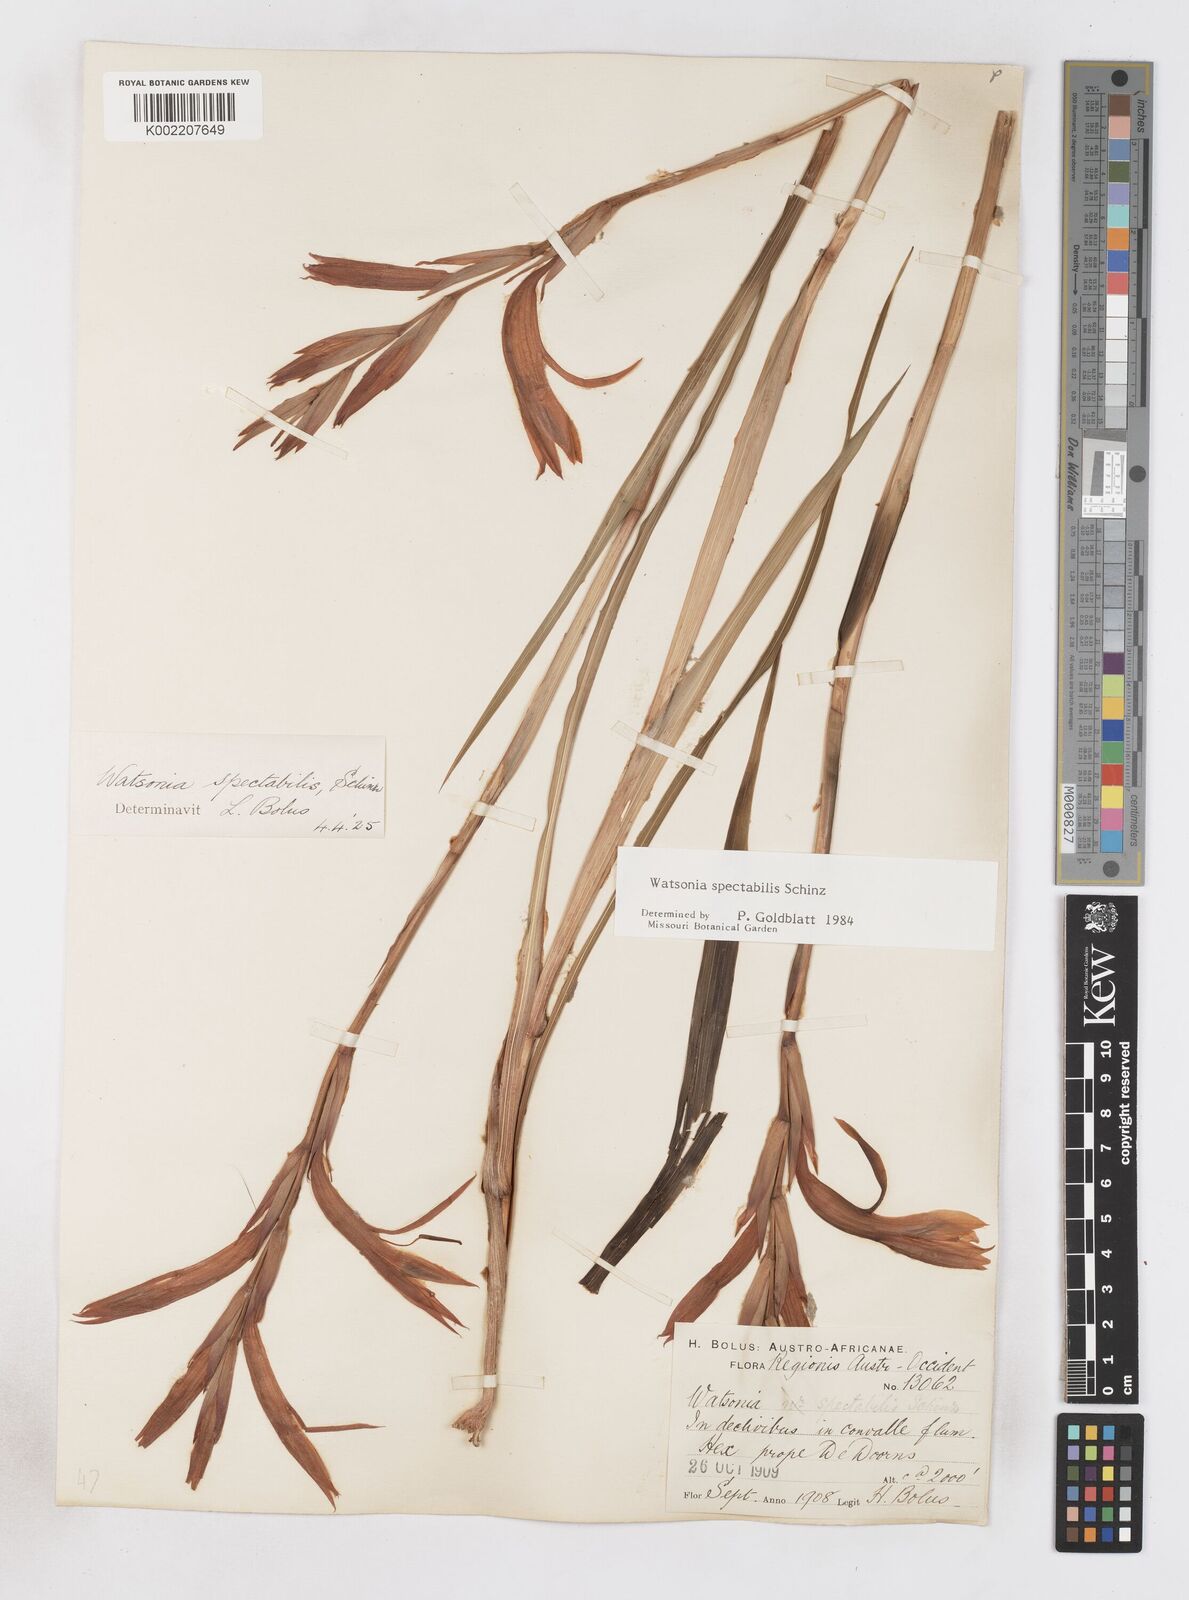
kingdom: Plantae
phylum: Tracheophyta
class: Liliopsida
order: Asparagales
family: Iridaceae
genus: Watsonia
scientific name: Watsonia spectabilis
